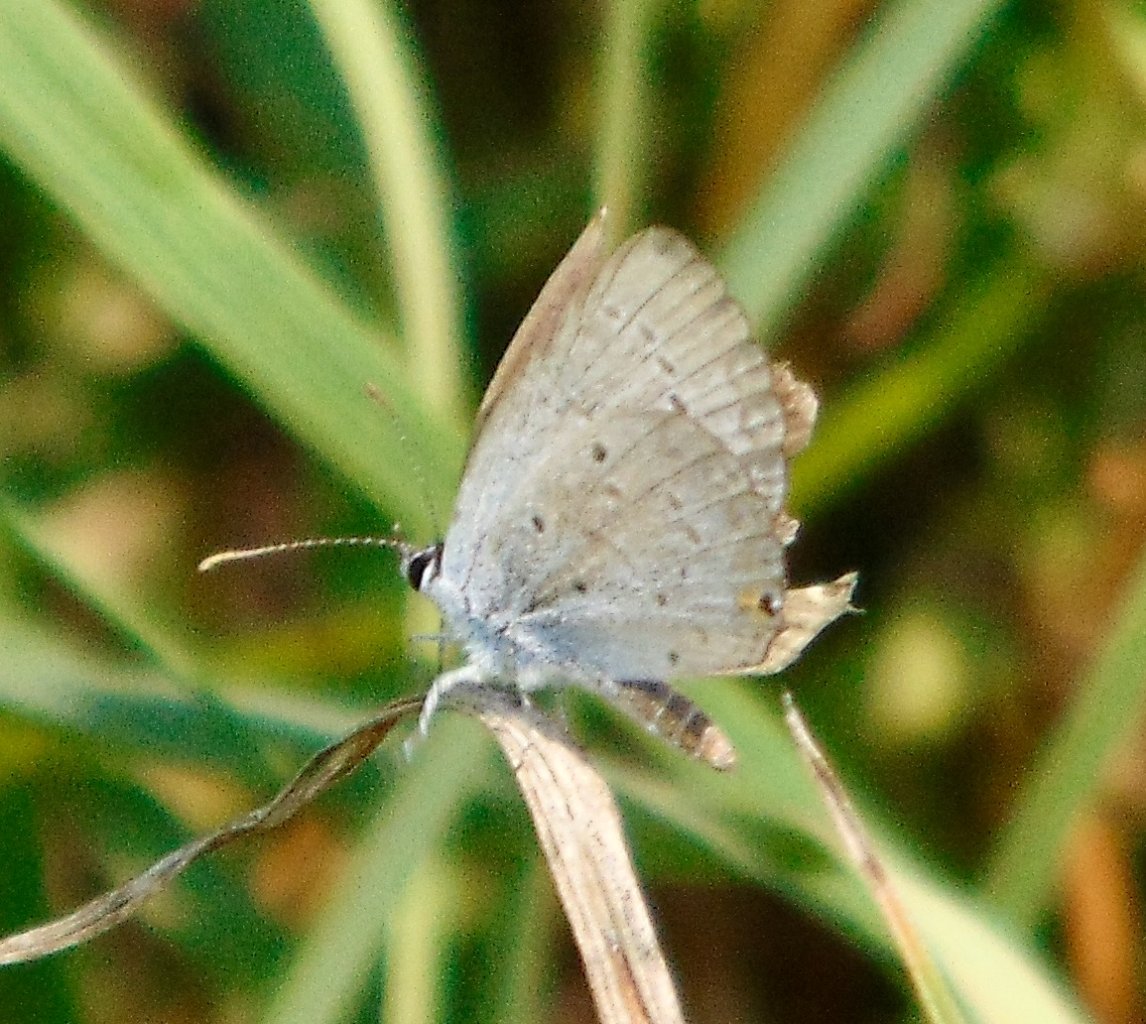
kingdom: Animalia
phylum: Arthropoda
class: Insecta
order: Lepidoptera
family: Lycaenidae
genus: Elkalyce
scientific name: Elkalyce comyntas
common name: Eastern Tailed-Blue
